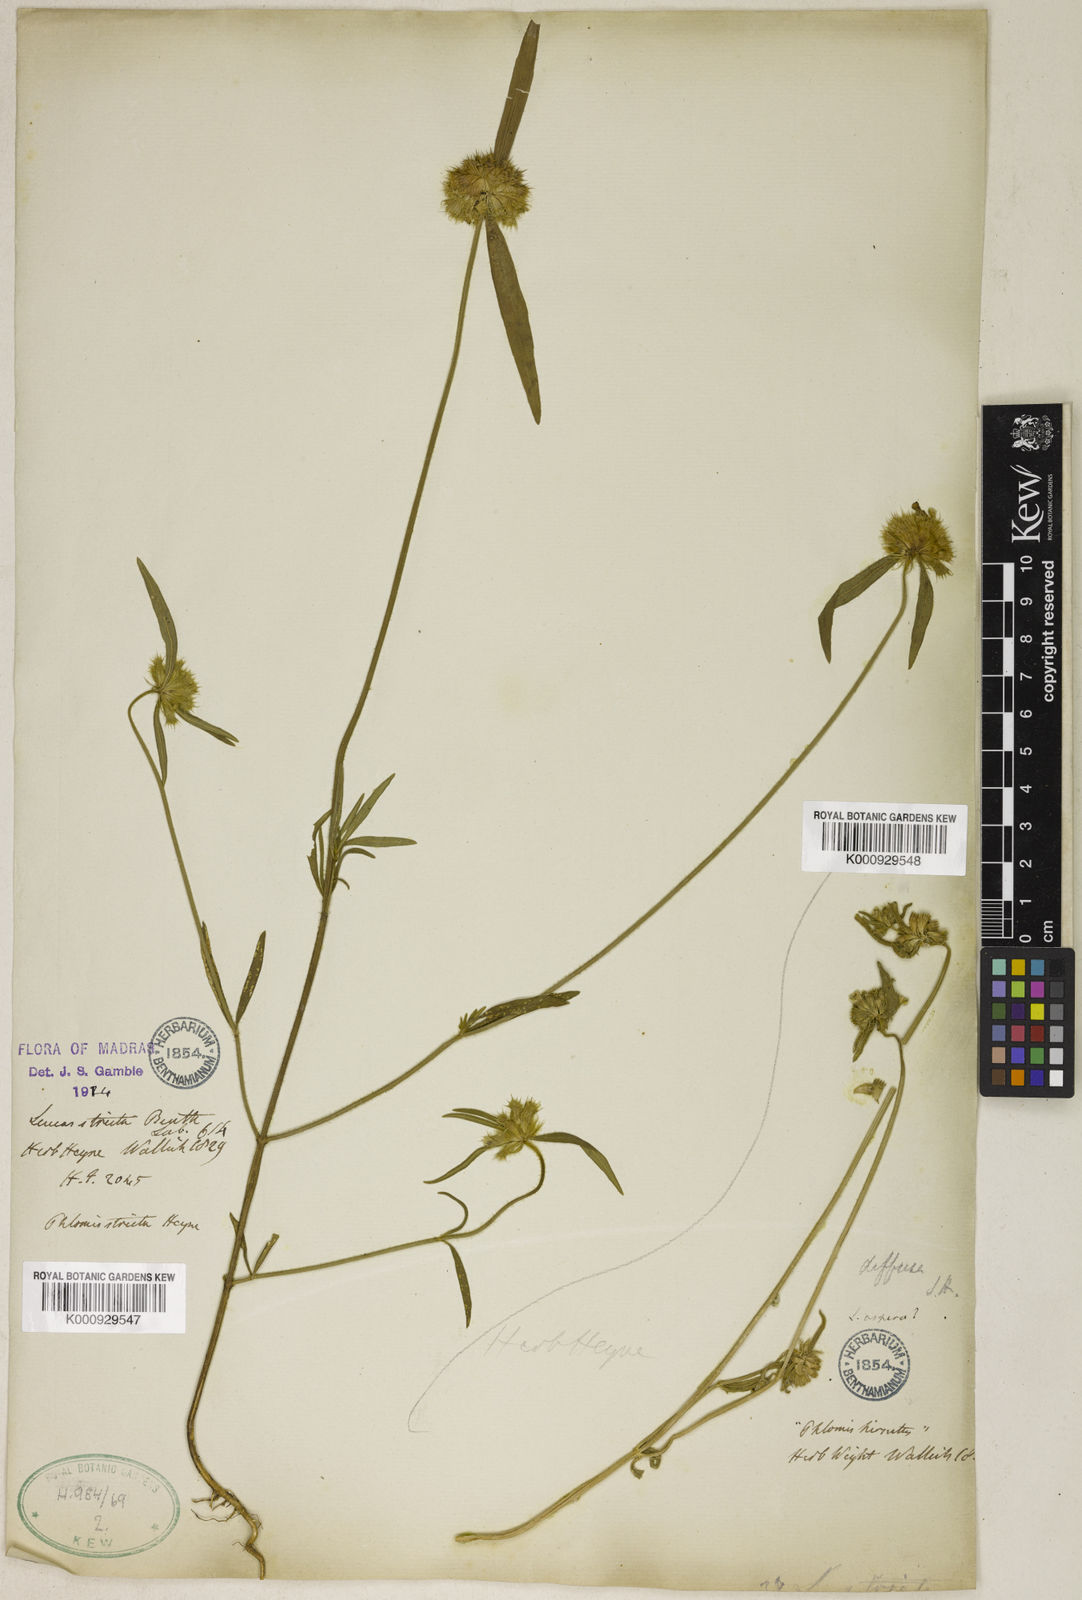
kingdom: Plantae
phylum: Tracheophyta
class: Magnoliopsida
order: Lamiales
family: Lamiaceae
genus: Leucas
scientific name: Leucas stricta
